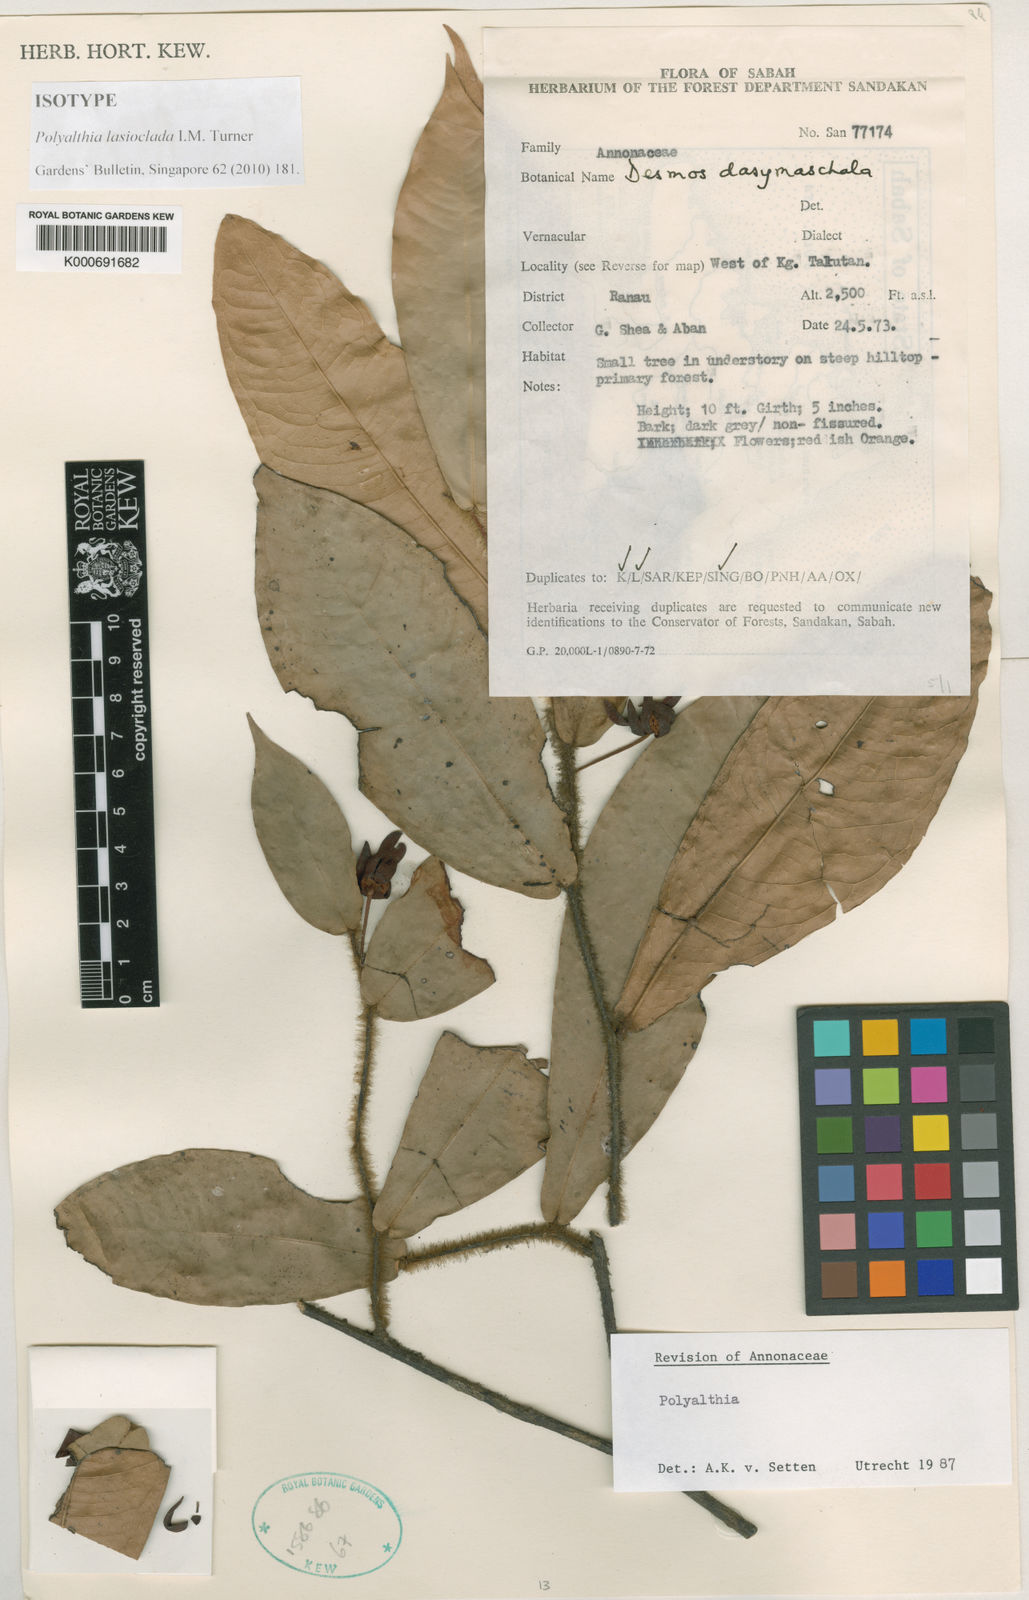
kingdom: Plantae
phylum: Tracheophyta
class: Magnoliopsida
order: Magnoliales
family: Annonaceae
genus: Polyalthia
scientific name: Polyalthia lasioclada
